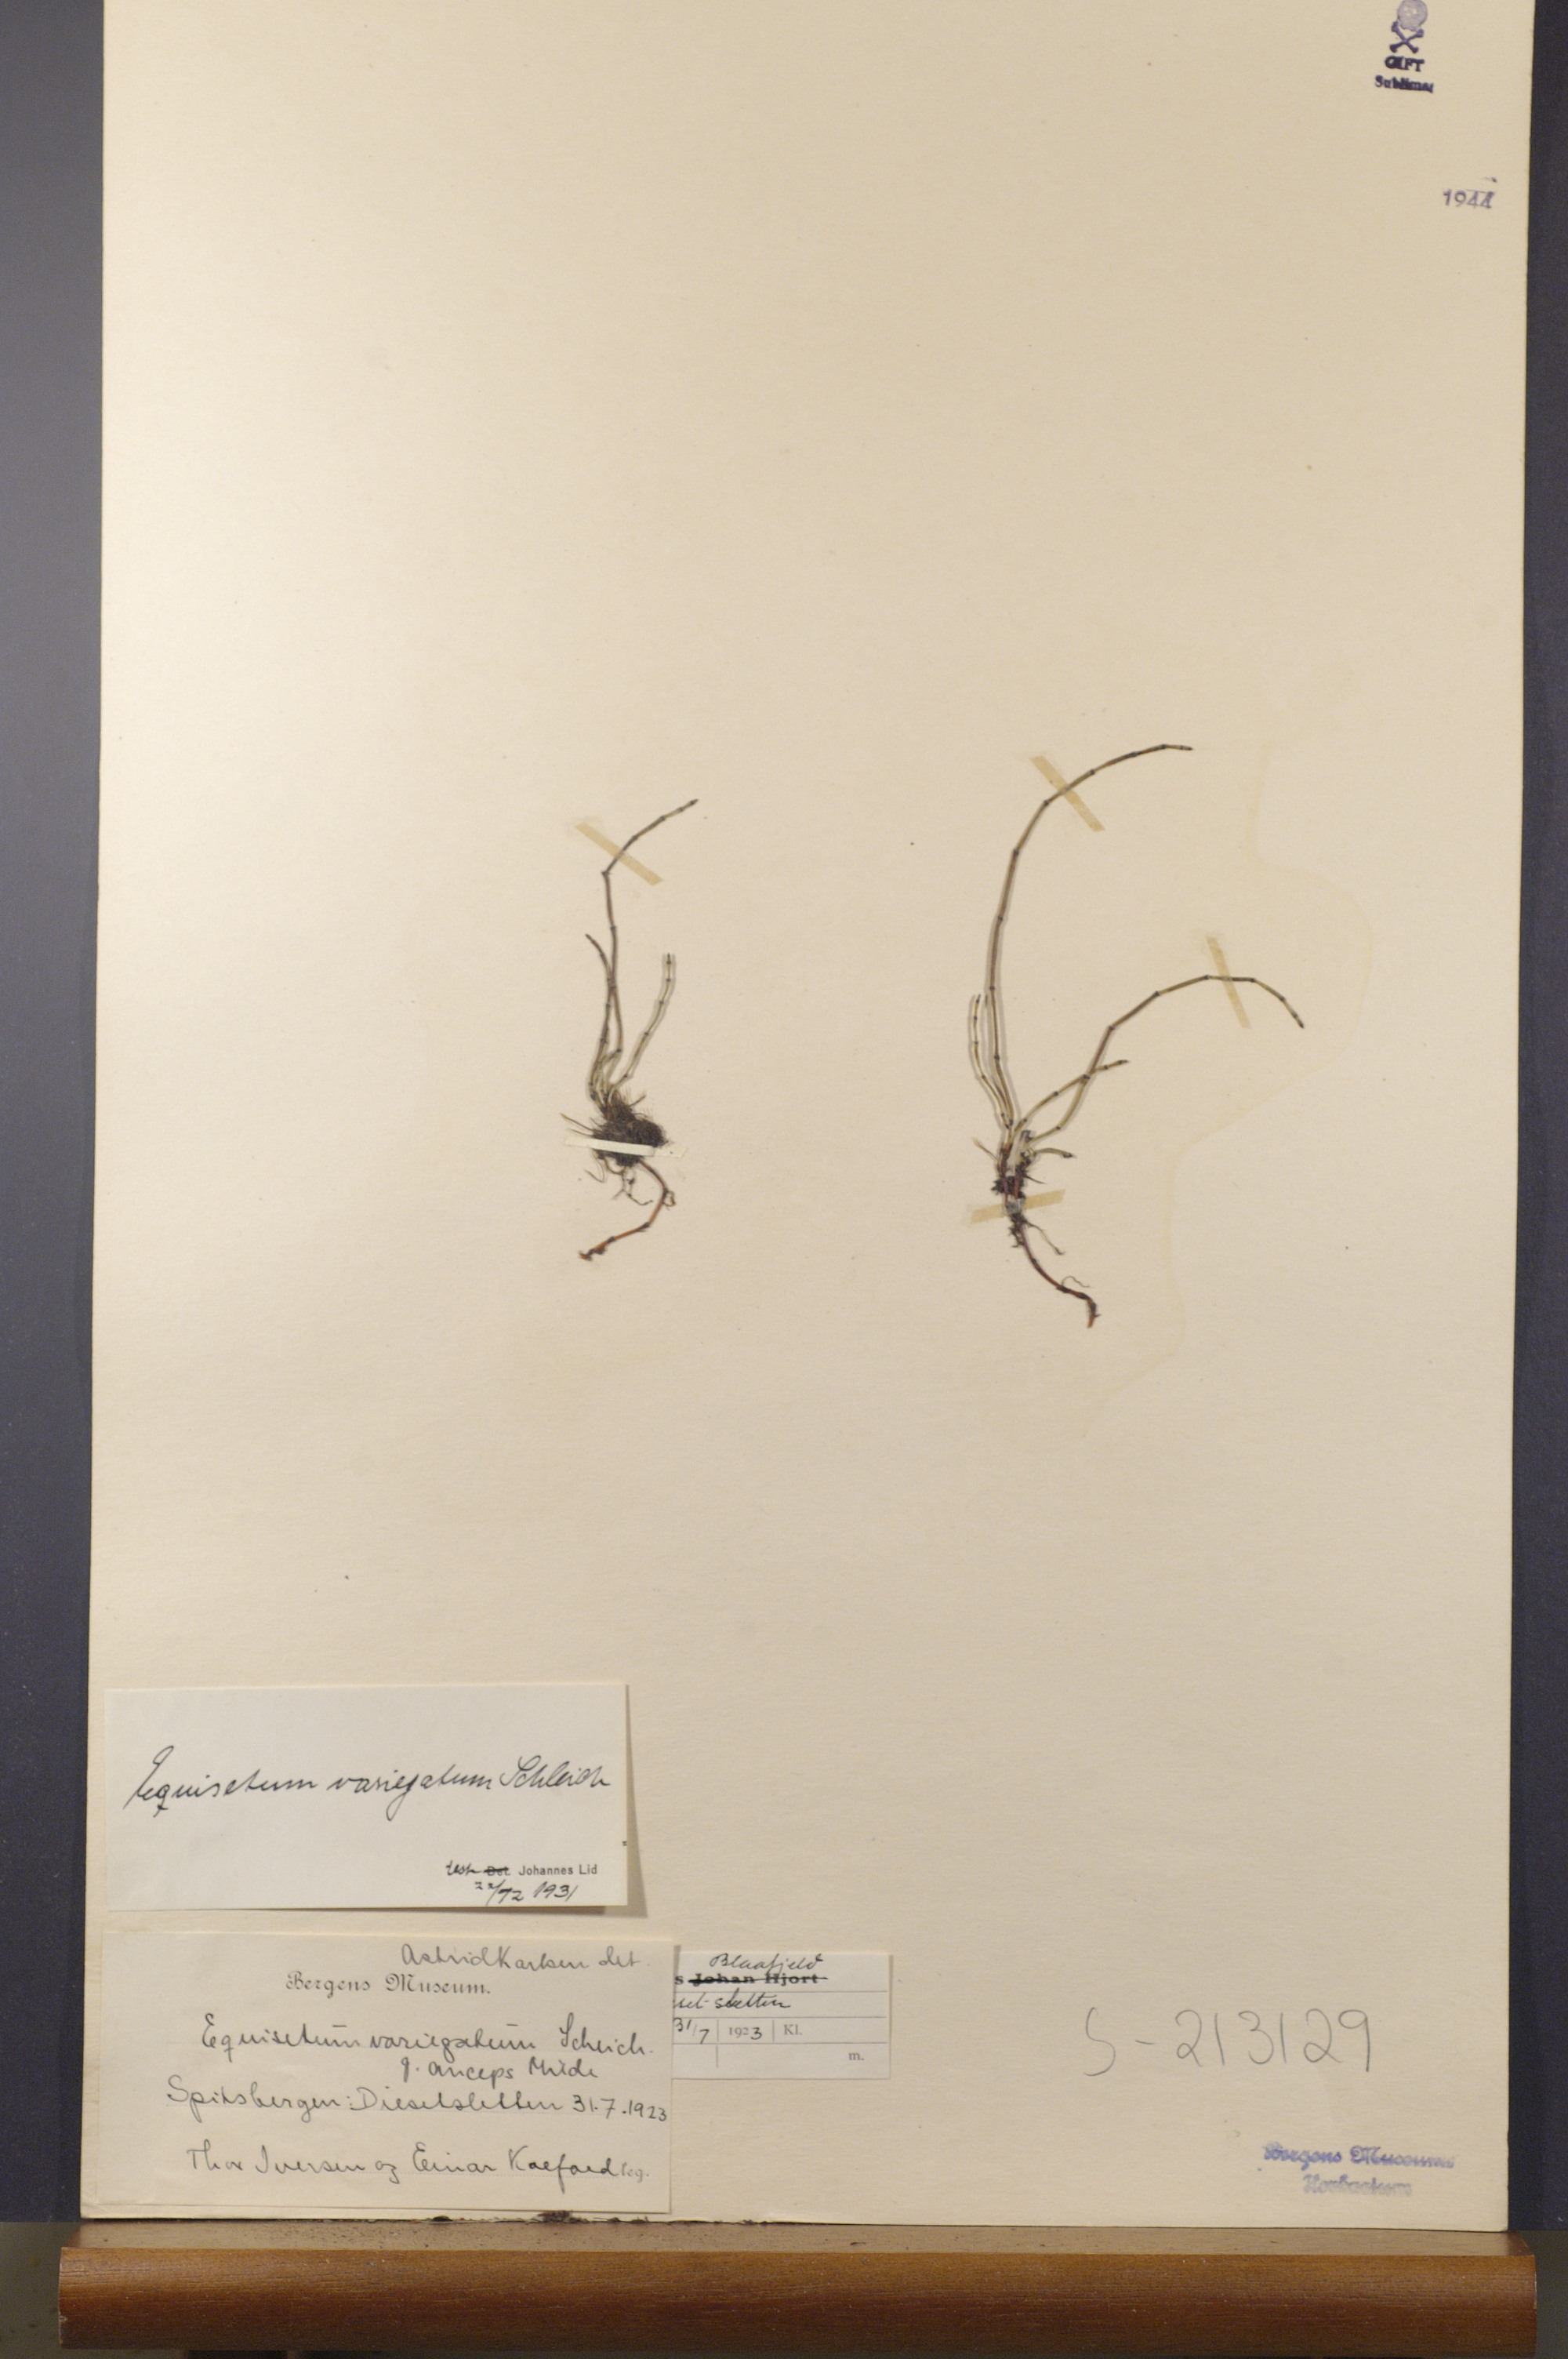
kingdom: Plantae
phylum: Tracheophyta
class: Polypodiopsida
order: Equisetales
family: Equisetaceae
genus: Equisetum
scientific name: Equisetum variegatum
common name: Variegated horsetail
